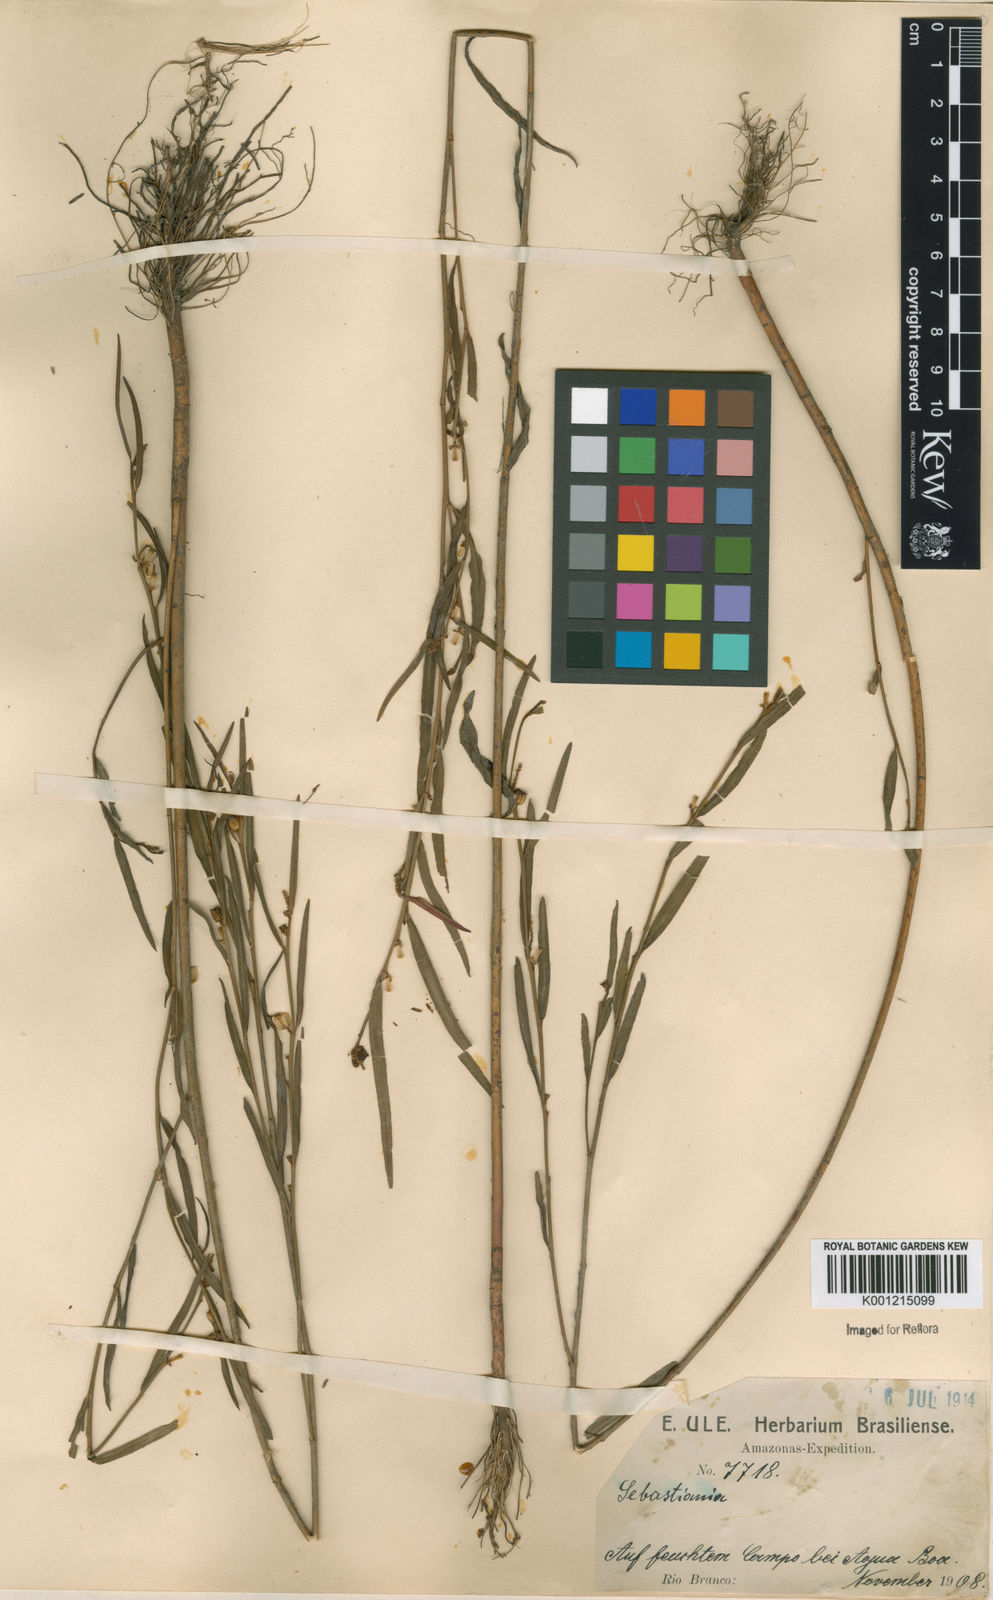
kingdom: Plantae
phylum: Tracheophyta
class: Magnoliopsida
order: Malpighiales
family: Euphorbiaceae
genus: Sebastiania
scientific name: Sebastiania
